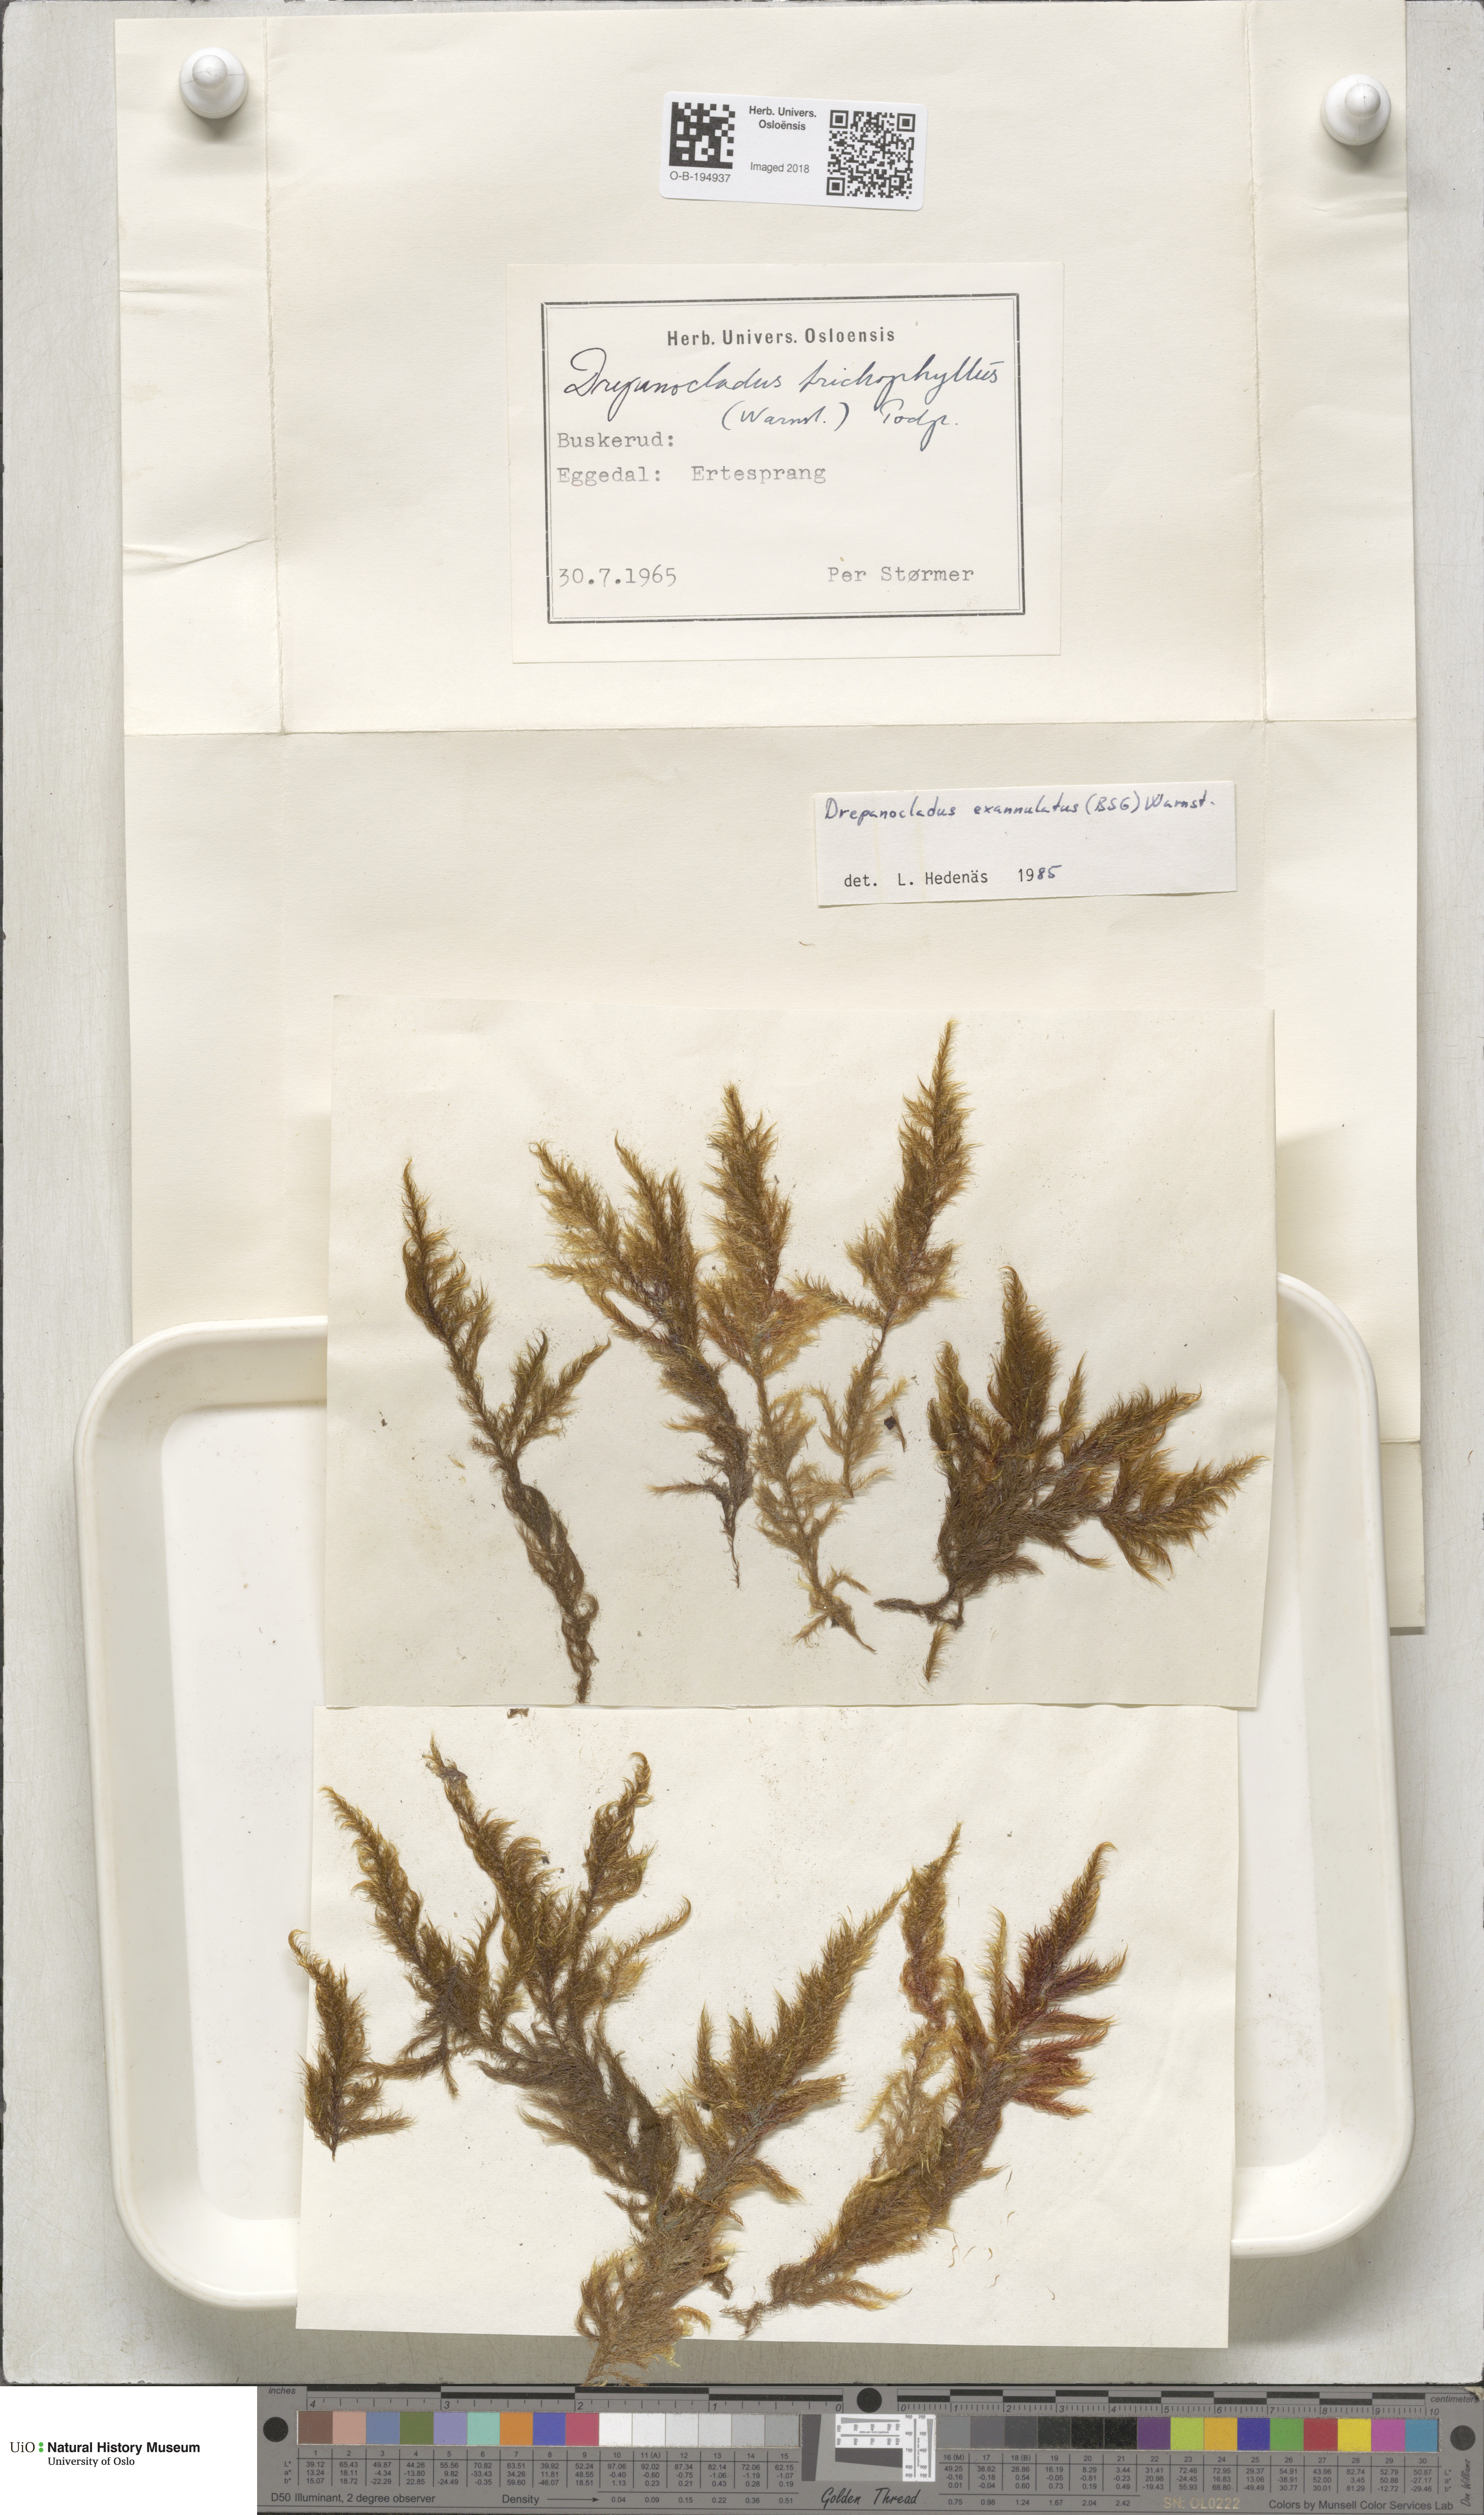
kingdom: Plantae
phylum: Bryophyta
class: Bryopsida
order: Hypnales
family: Calliergonaceae
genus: Sarmentypnum
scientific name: Sarmentypnum exannulatum
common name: Ringless spoon moss
